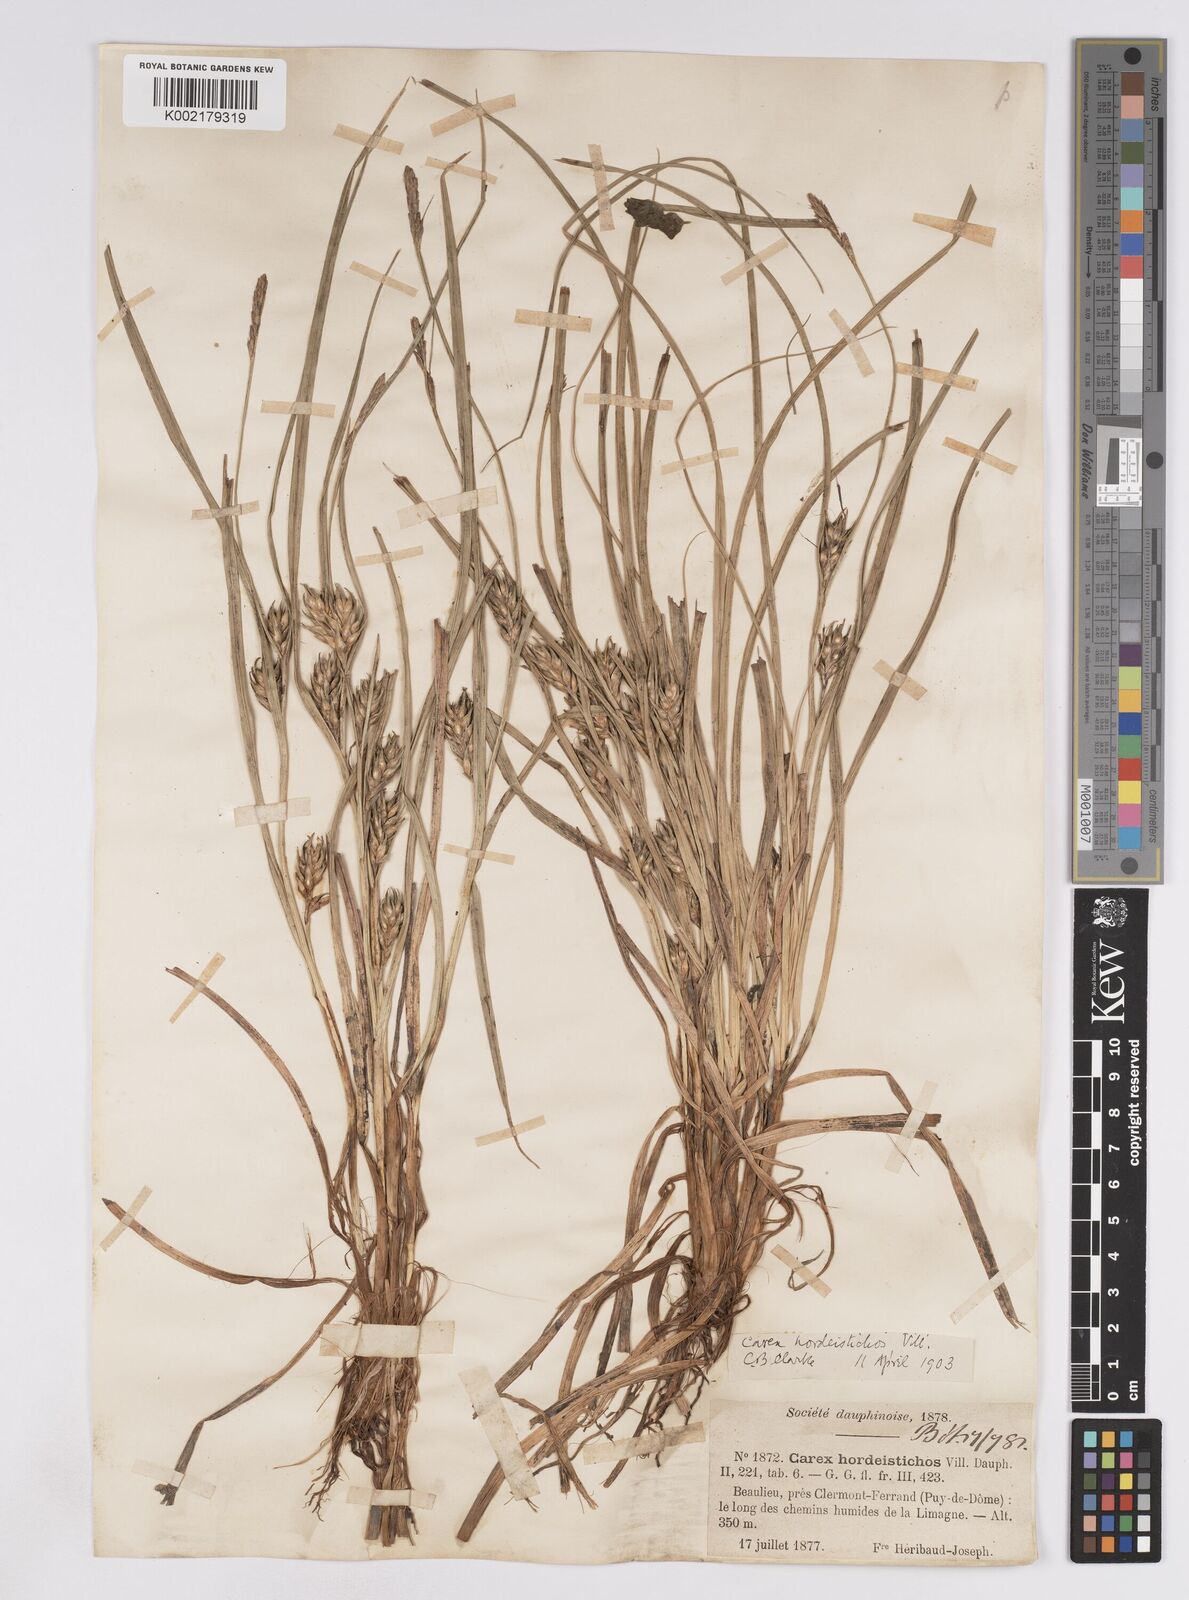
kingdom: Plantae
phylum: Tracheophyta
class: Liliopsida
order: Poales
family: Cyperaceae
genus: Carex
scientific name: Carex hordeistichos
